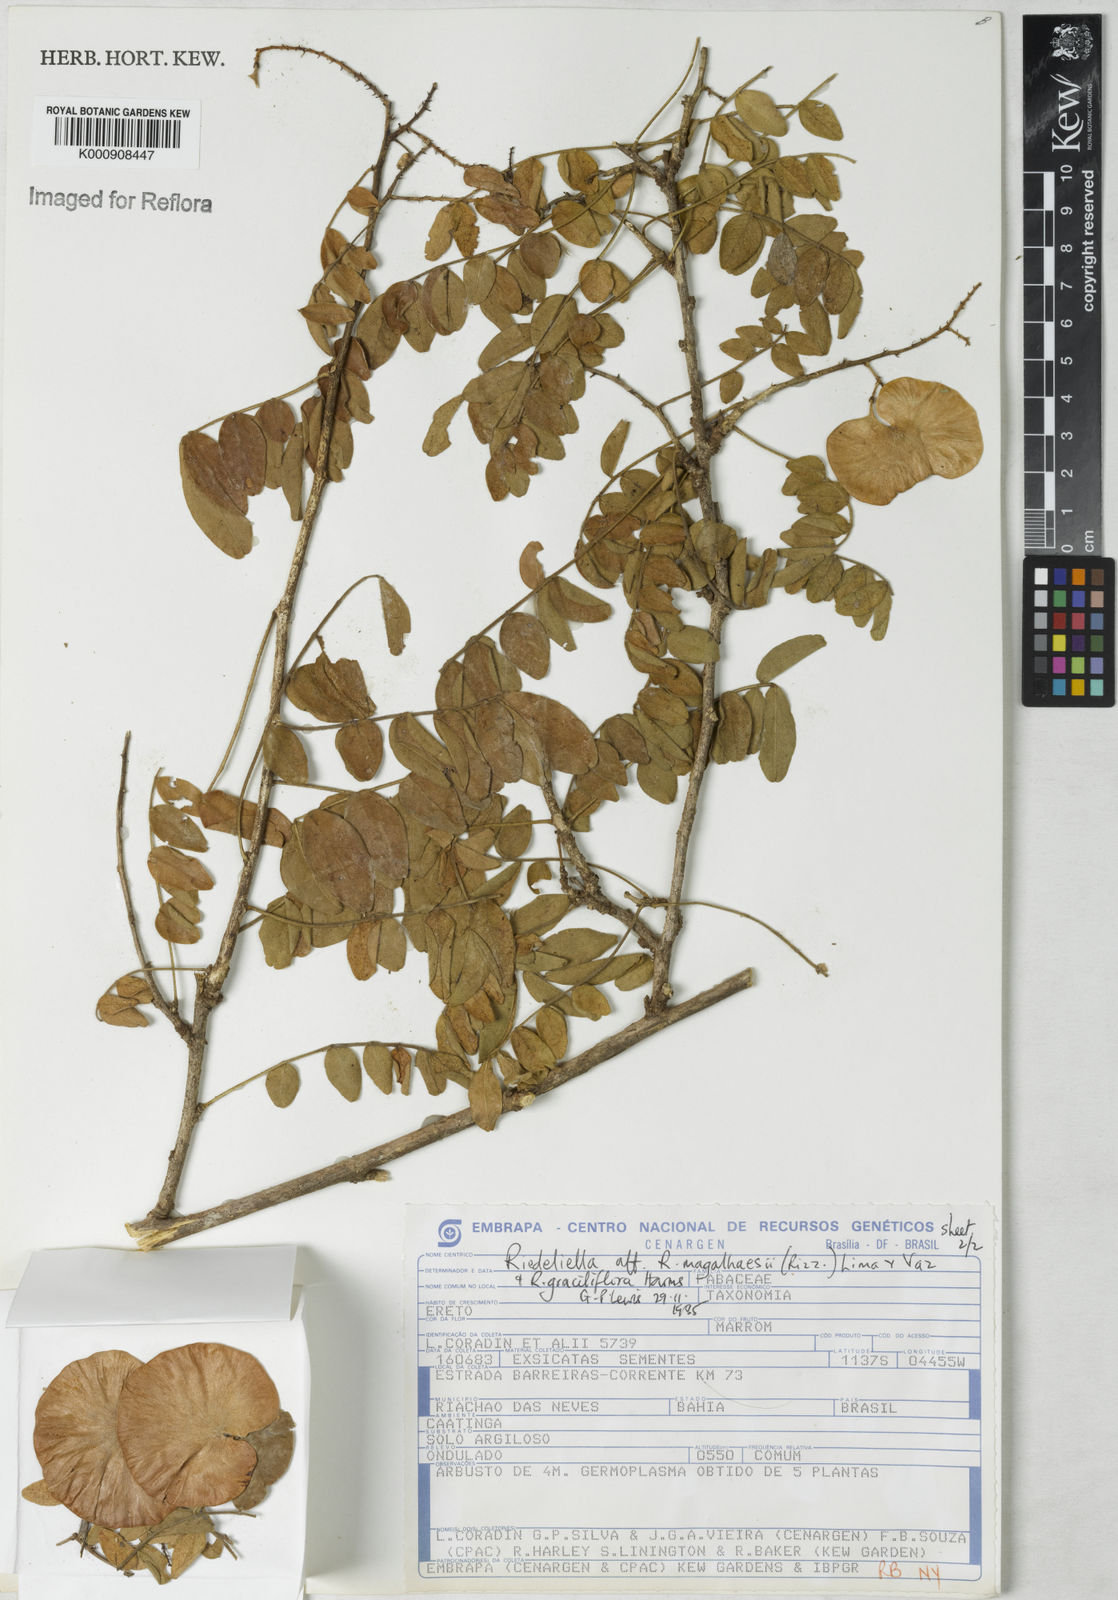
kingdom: Plantae
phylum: Tracheophyta
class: Magnoliopsida
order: Fabales
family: Fabaceae
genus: Riedeliella
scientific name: Riedeliella
